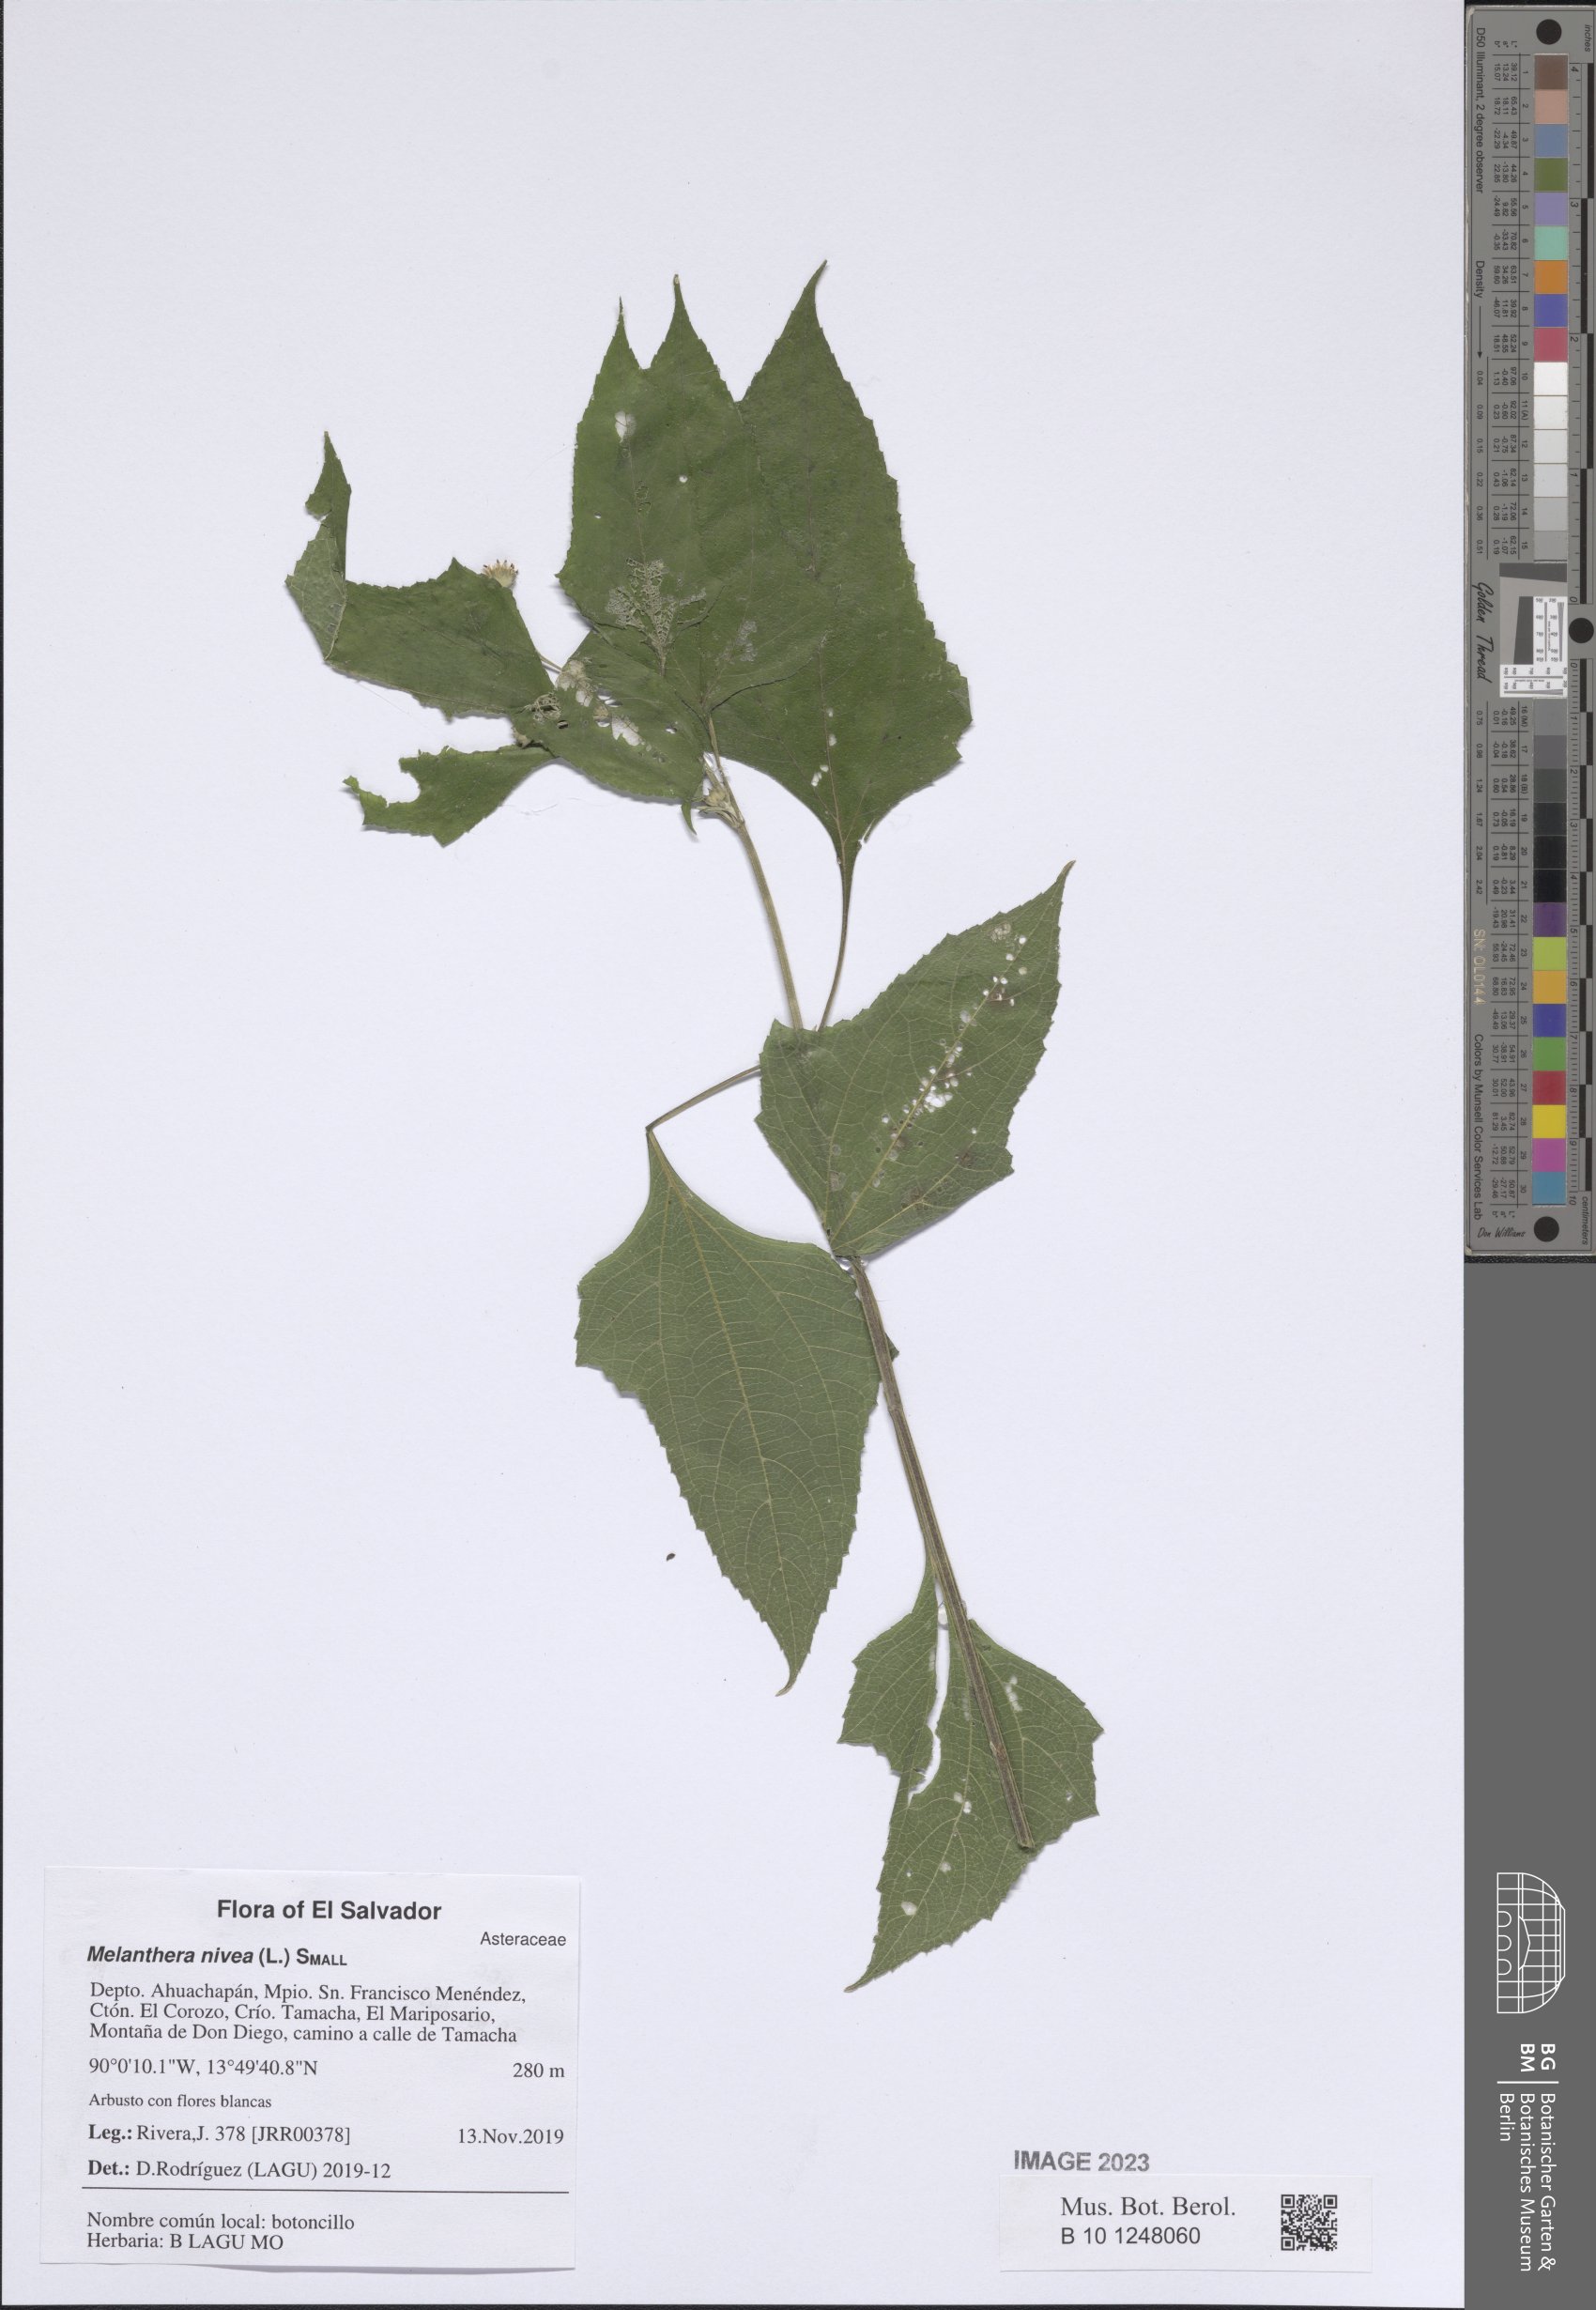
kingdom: Plantae
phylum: Tracheophyta
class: Magnoliopsida
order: Asterales
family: Asteraceae
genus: Melanthera
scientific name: Melanthera nivea
